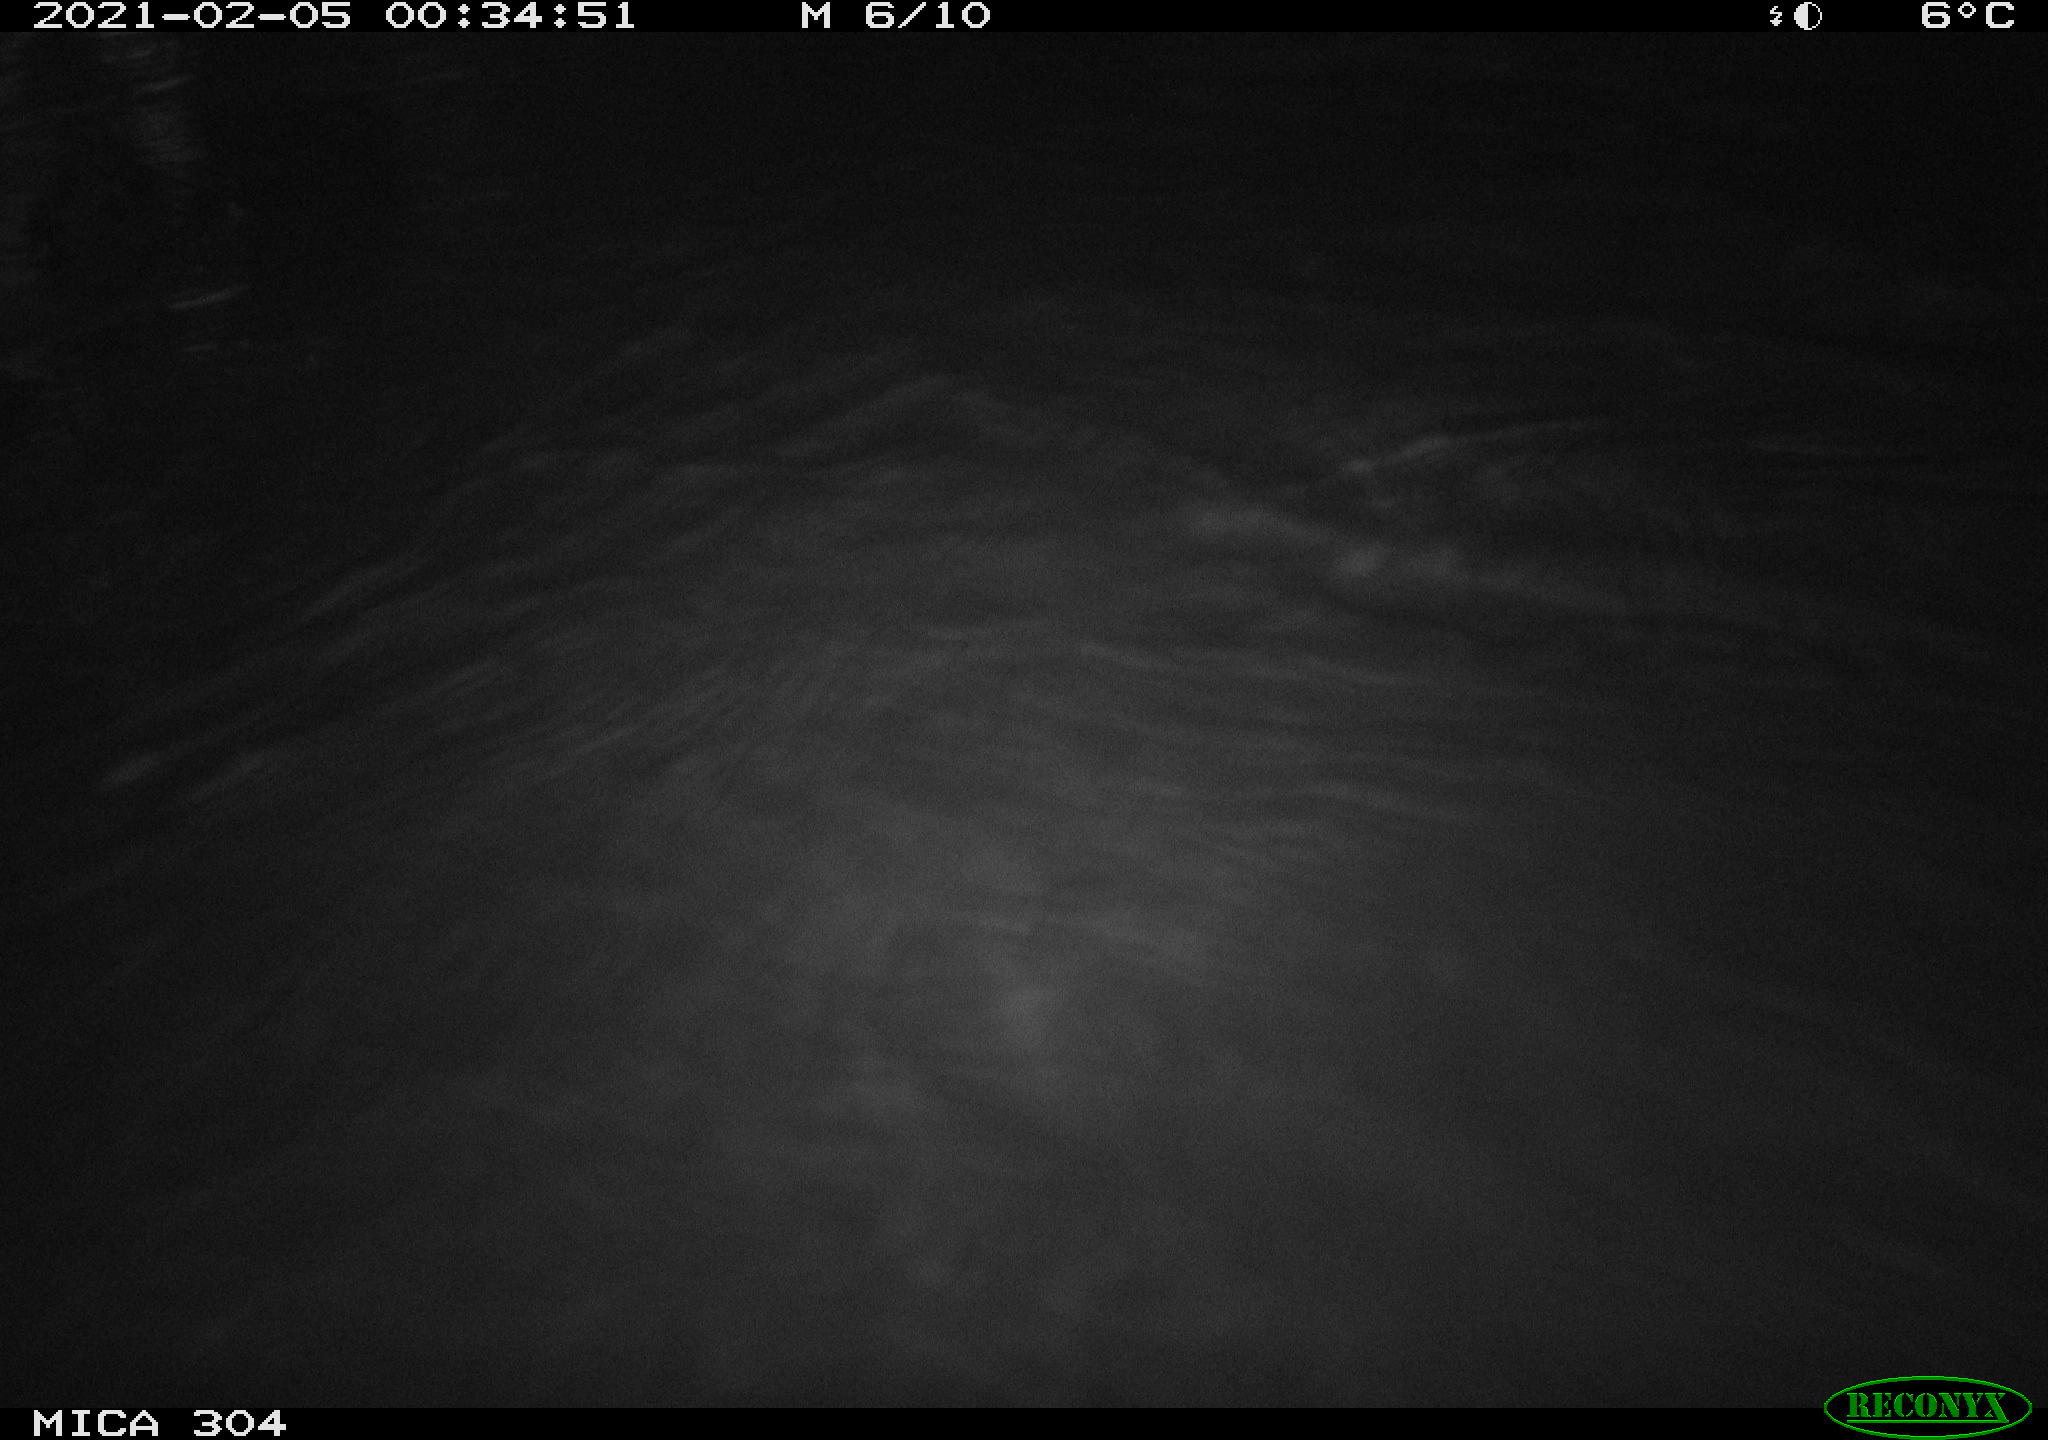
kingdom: Animalia
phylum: Chordata
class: Mammalia
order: Rodentia
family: Cricetidae
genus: Ondatra
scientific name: Ondatra zibethicus
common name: Muskrat
